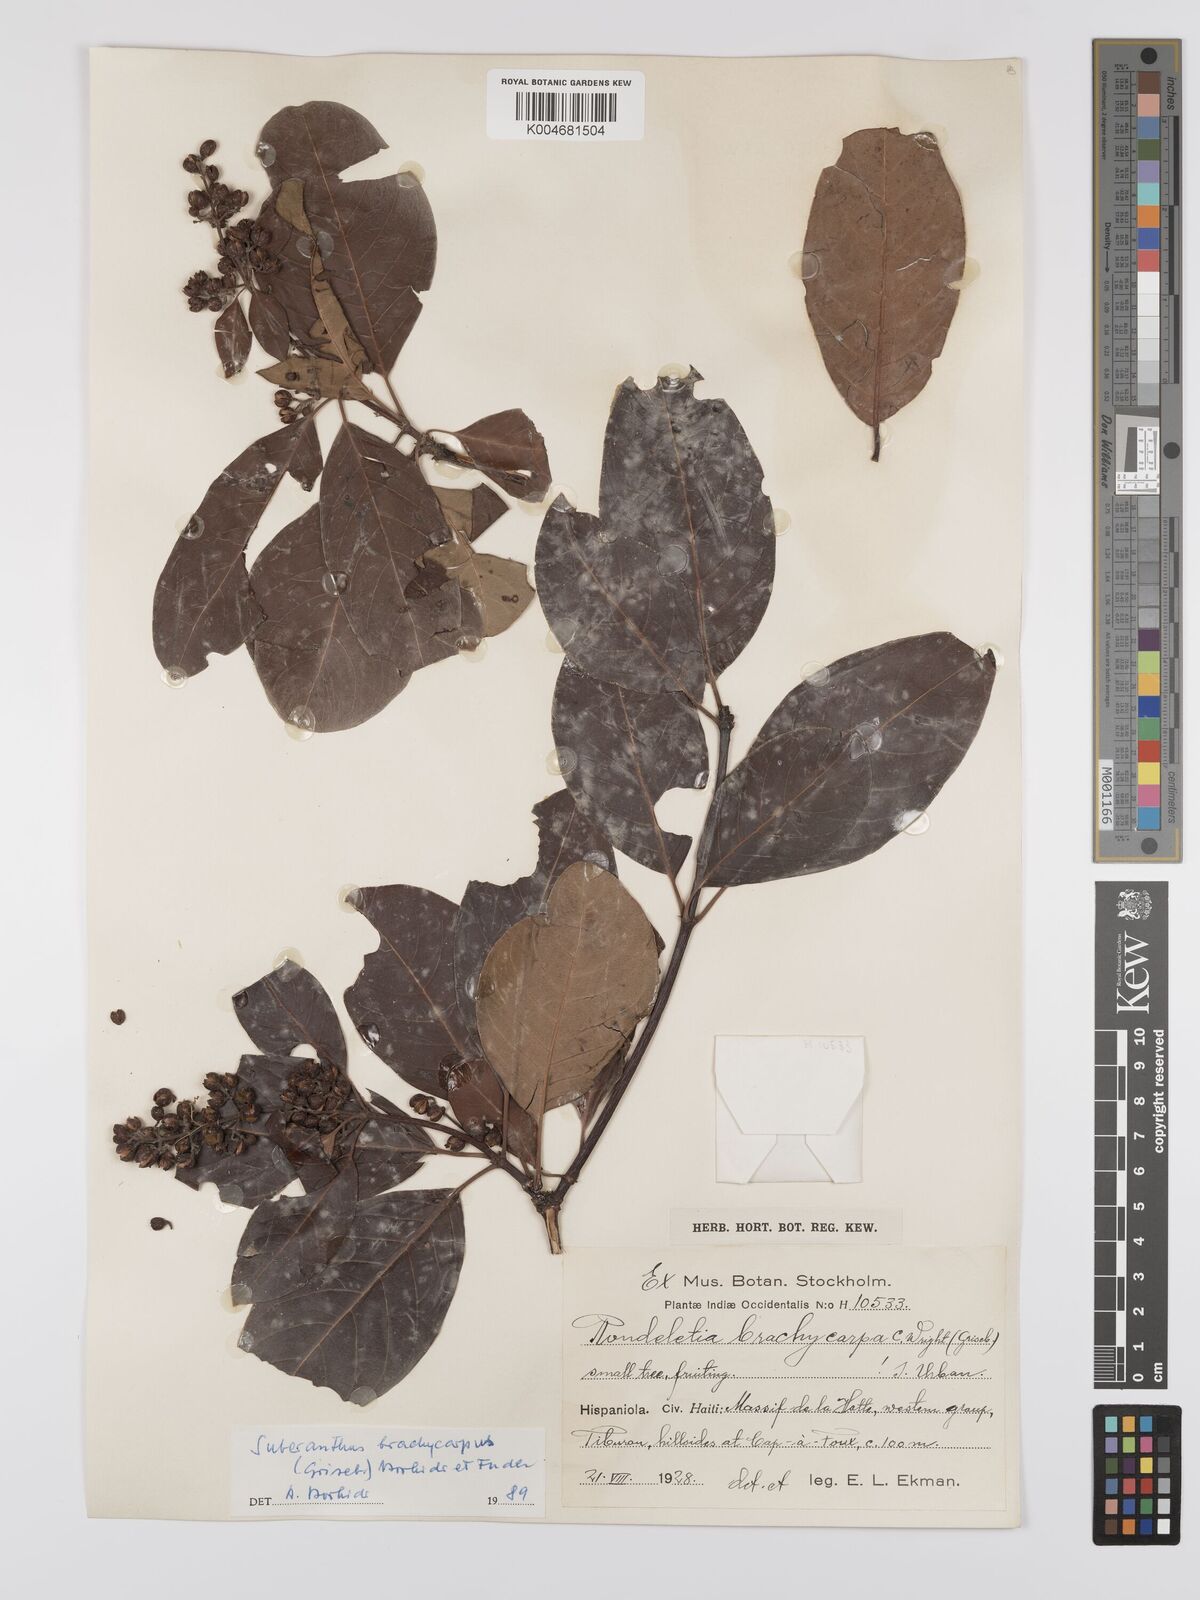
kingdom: Plantae
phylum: Tracheophyta
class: Magnoliopsida
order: Gentianales
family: Rubiaceae
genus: Suberanthus
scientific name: Suberanthus brachycarpus
